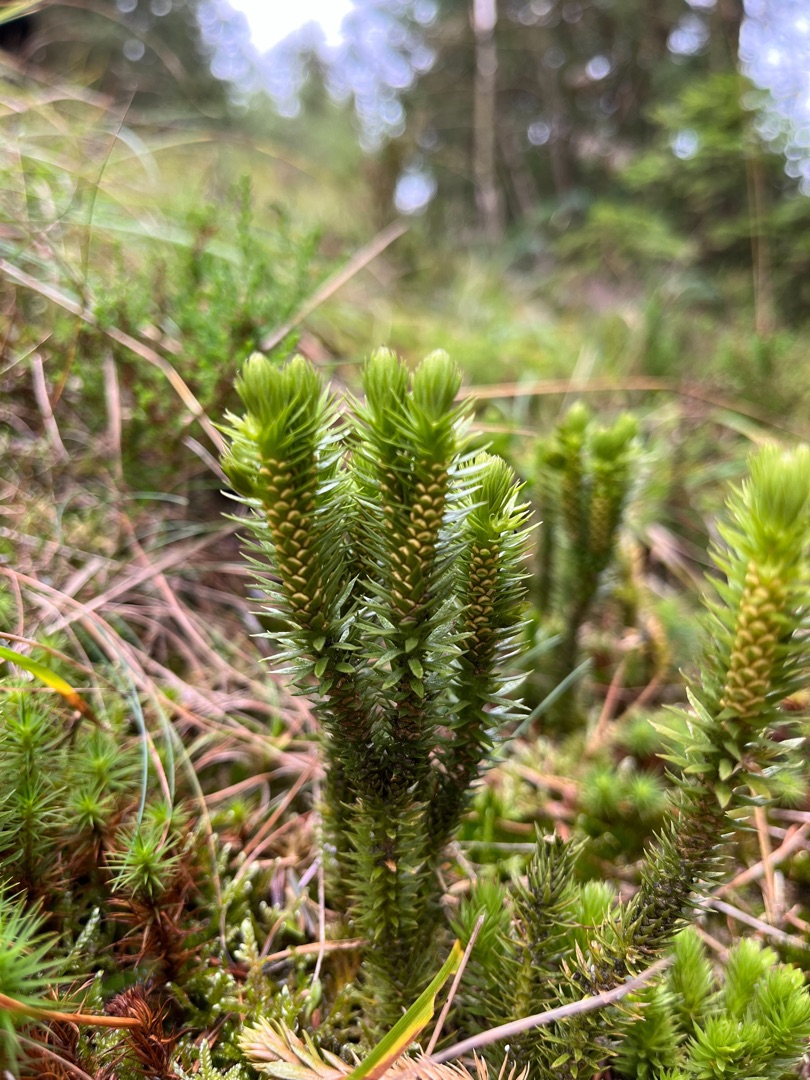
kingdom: Plantae
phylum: Tracheophyta
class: Lycopodiopsida
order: Lycopodiales
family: Lycopodiaceae
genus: Huperzia
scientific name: Huperzia selago
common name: Otteradet ulvefod
